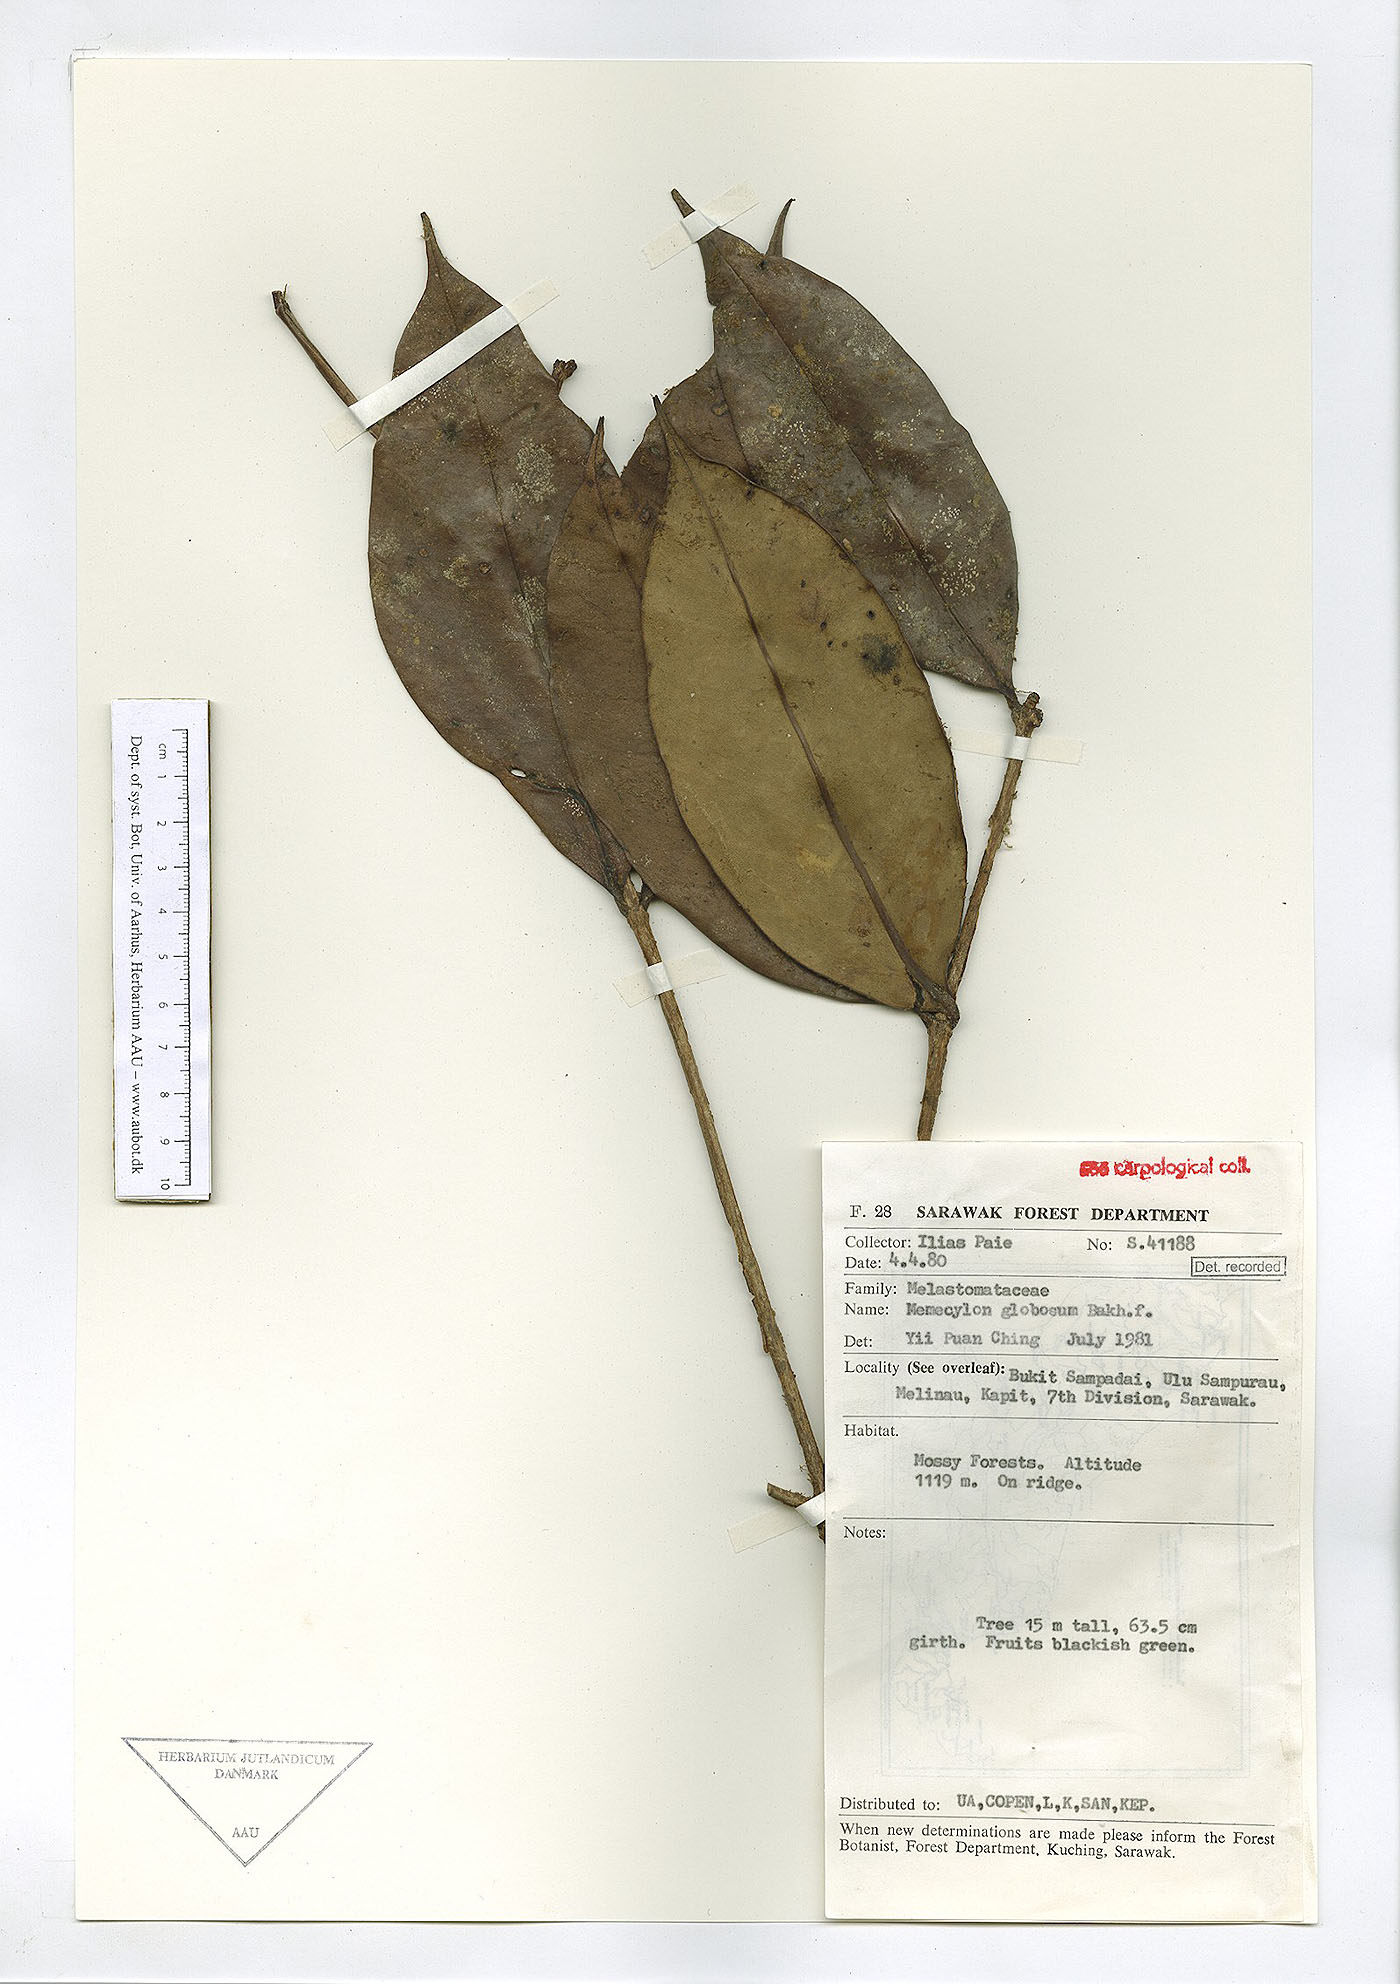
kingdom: Plantae
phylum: Tracheophyta
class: Magnoliopsida
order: Myrtales
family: Melastomataceae
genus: Memecylon
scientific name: Memecylon durum
